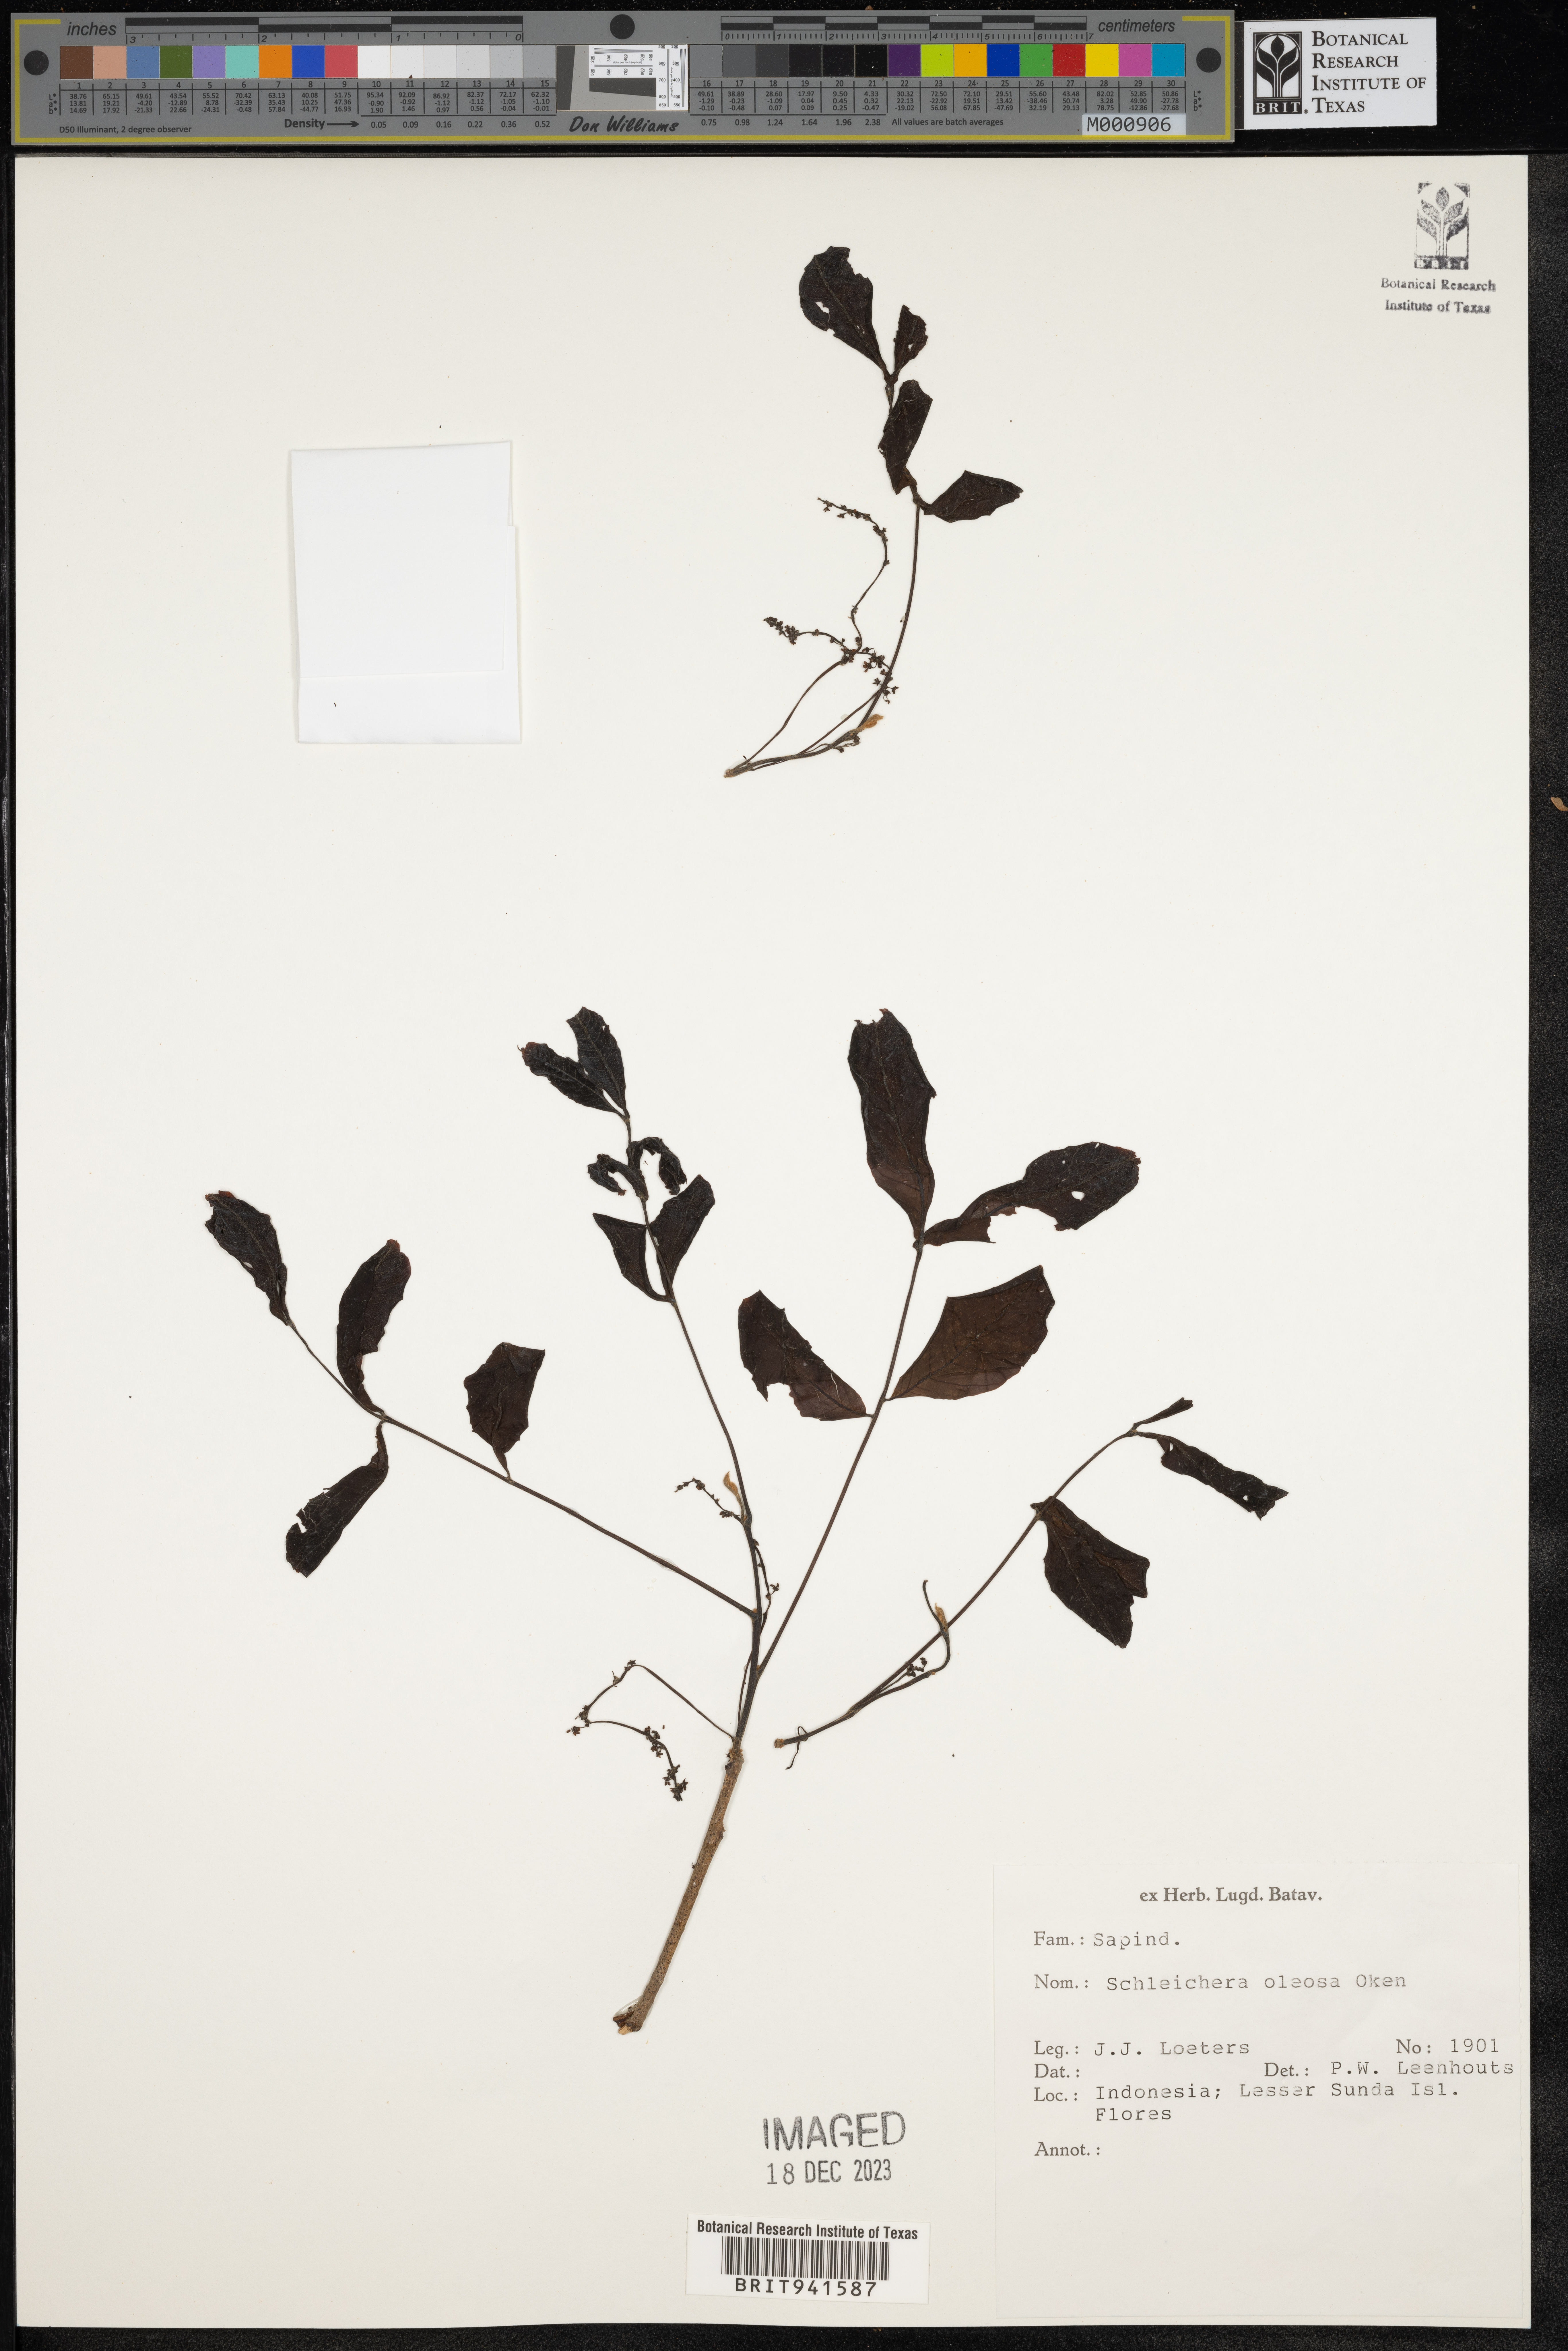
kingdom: Plantae
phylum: Tracheophyta
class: Magnoliopsida
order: Sapindales
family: Sapindaceae
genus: Schleichera
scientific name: Schleichera
